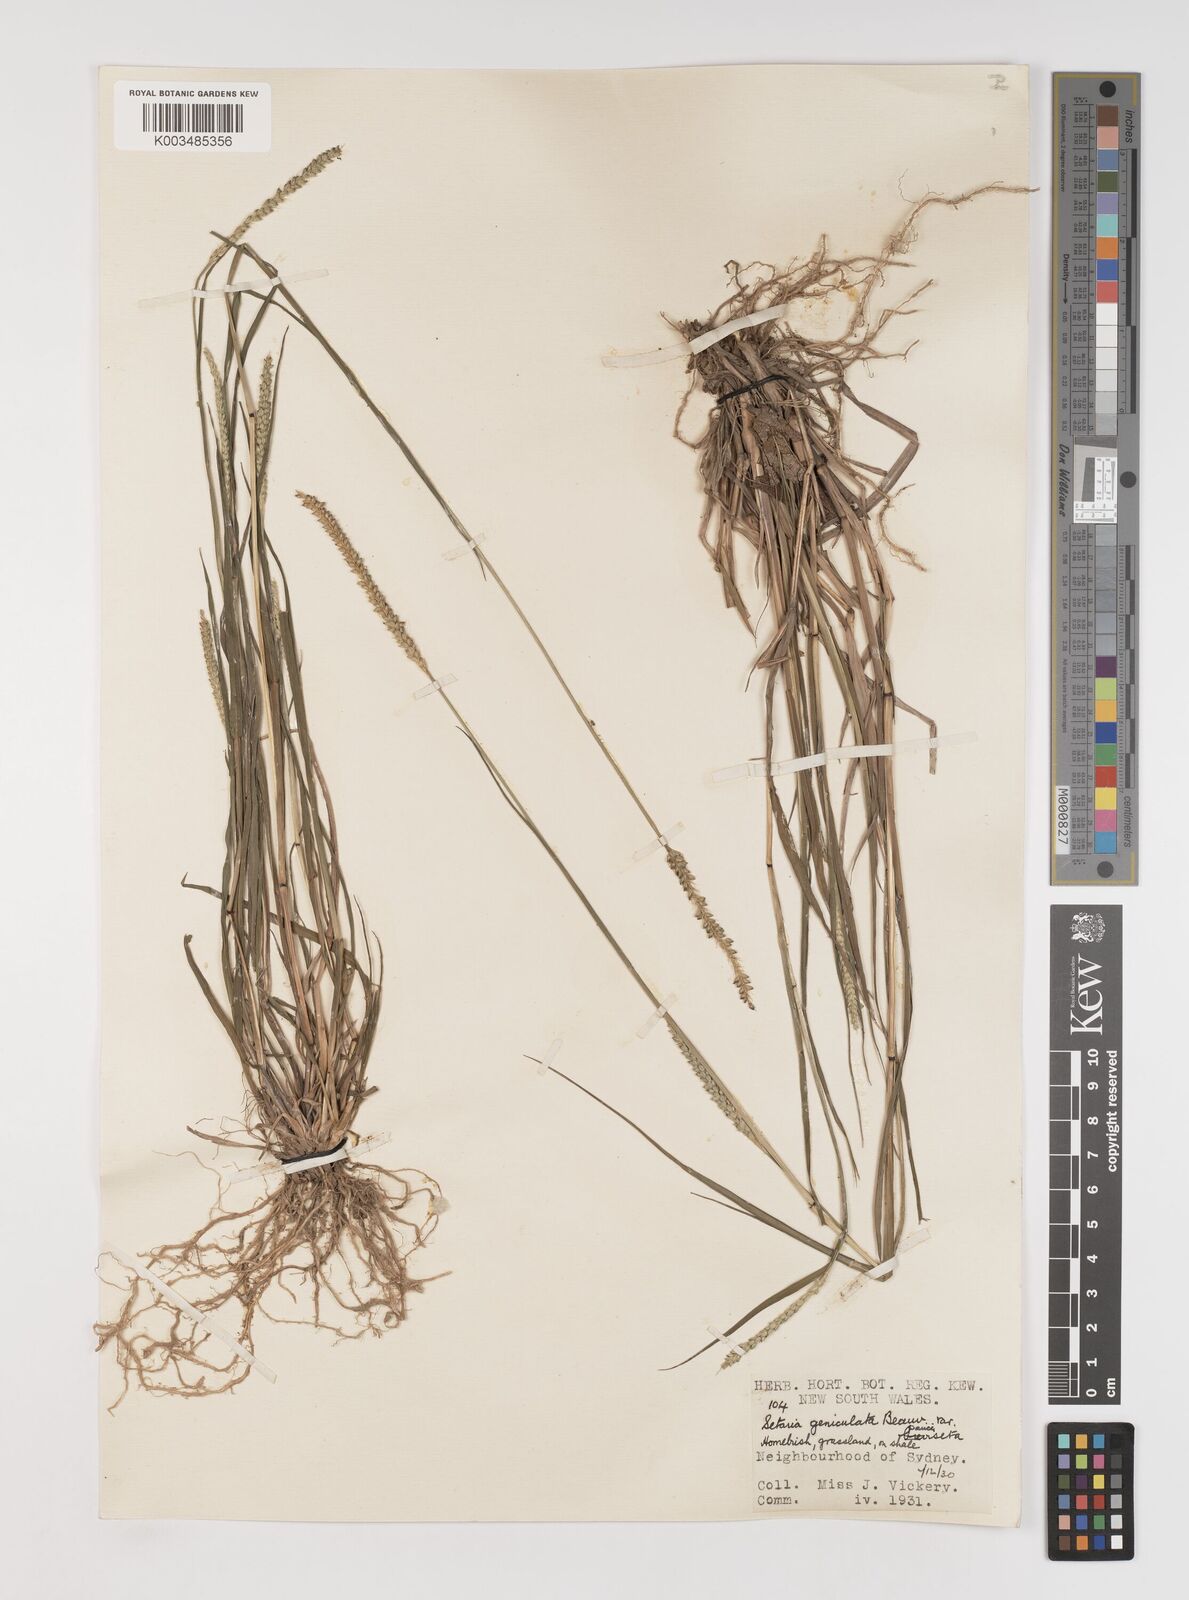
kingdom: Plantae
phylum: Tracheophyta
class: Liliopsida
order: Poales
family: Poaceae
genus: Setaria
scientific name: Setaria parviflora
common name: Knotroot bristle-grass
